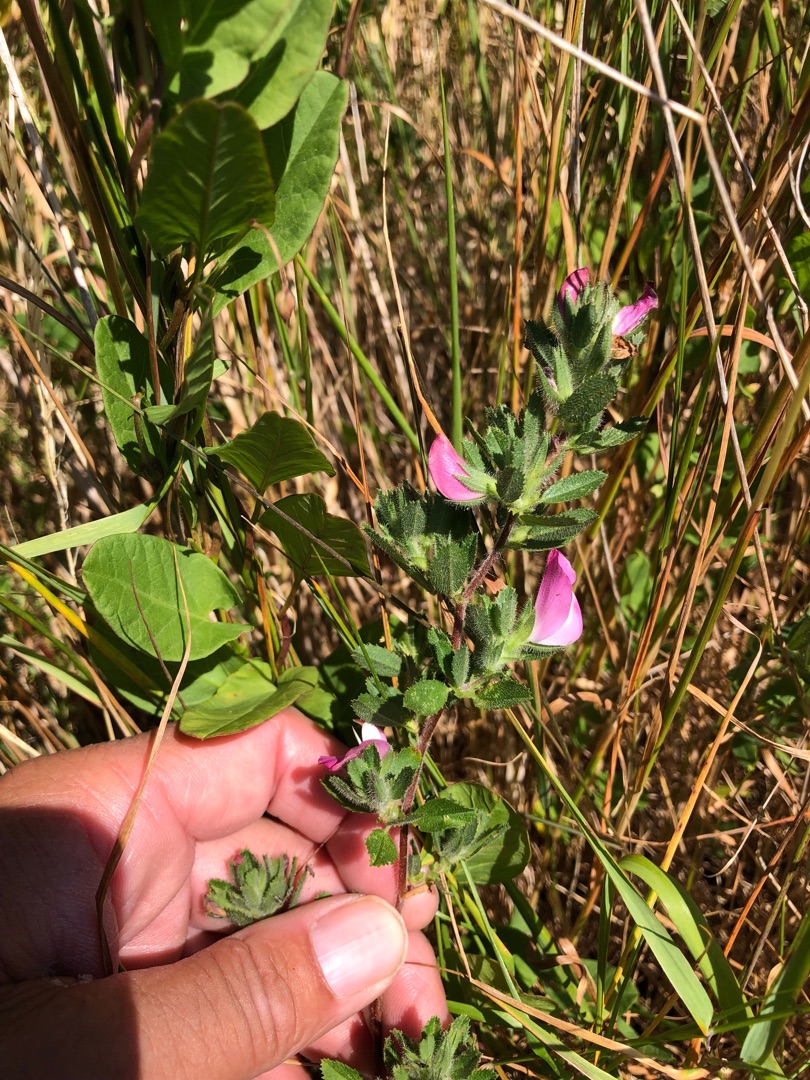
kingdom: Plantae
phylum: Tracheophyta
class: Magnoliopsida
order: Fabales
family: Fabaceae
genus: Ononis
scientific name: Ononis spinosa
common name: Mark-krageklo
